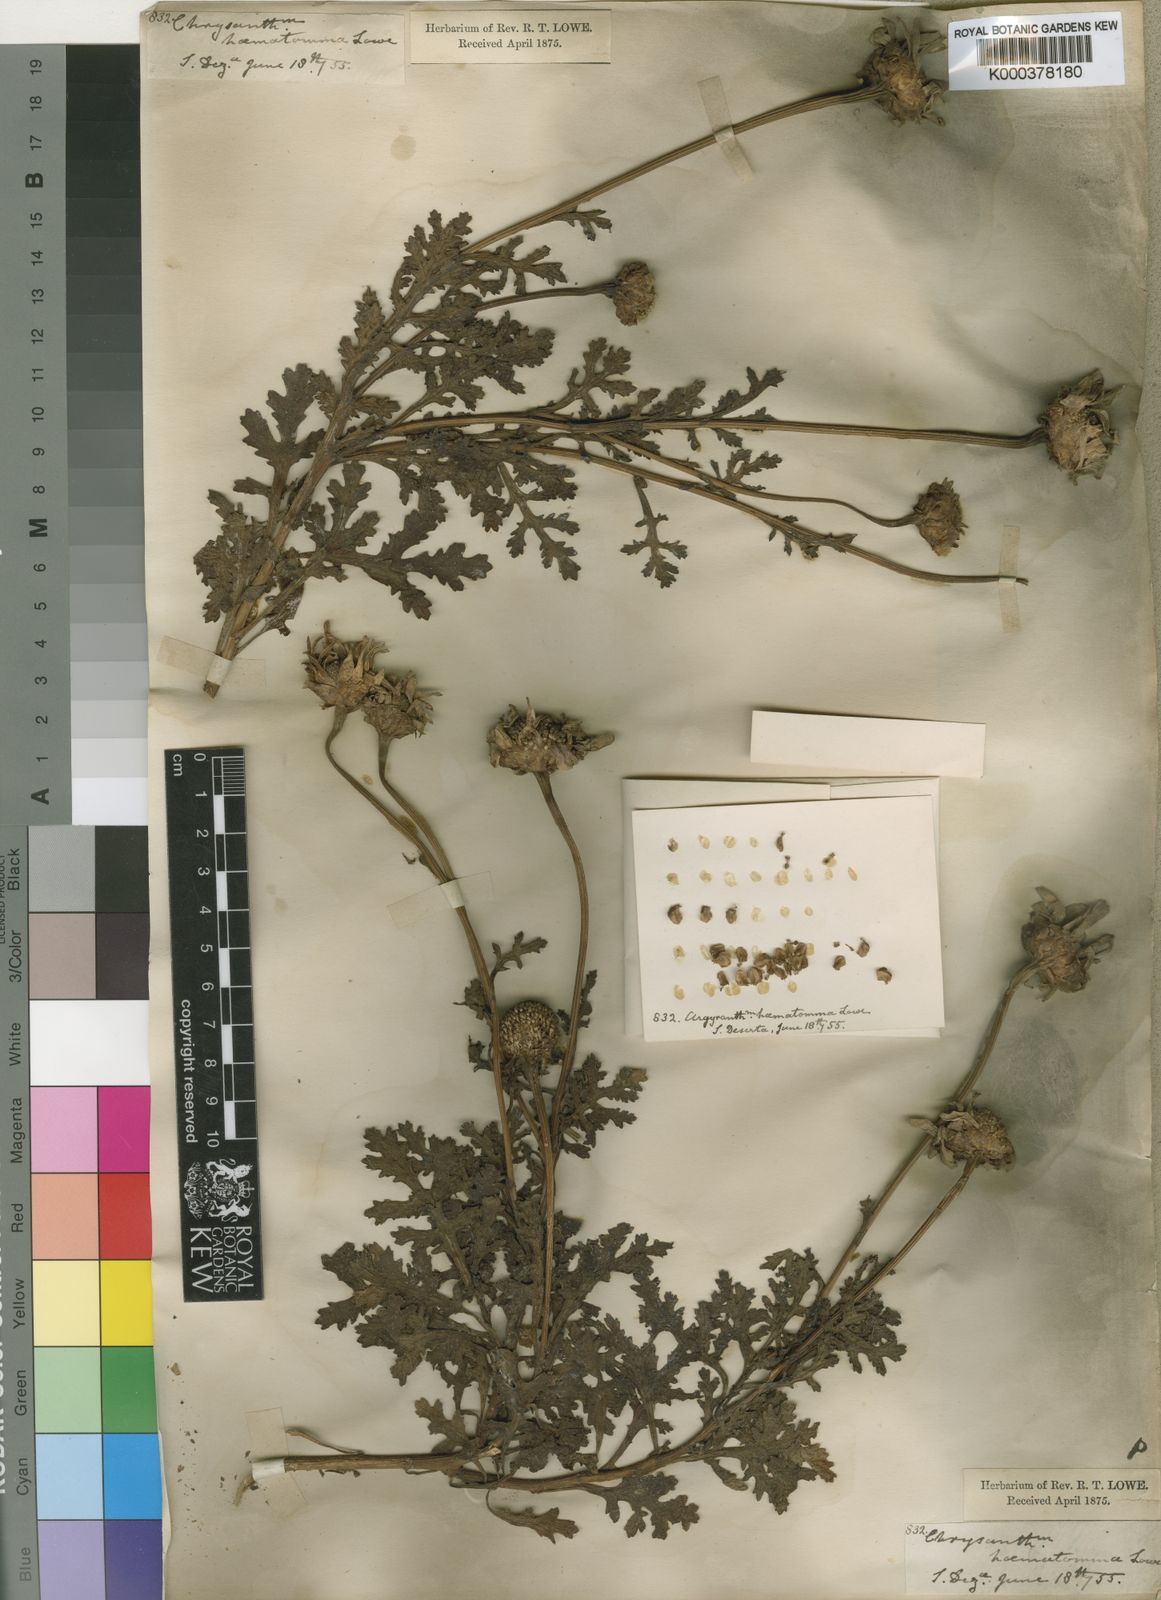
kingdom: Plantae
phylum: Tracheophyta
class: Magnoliopsida
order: Asterales
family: Asteraceae
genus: Argyranthemum
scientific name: Argyranthemum haematomma
